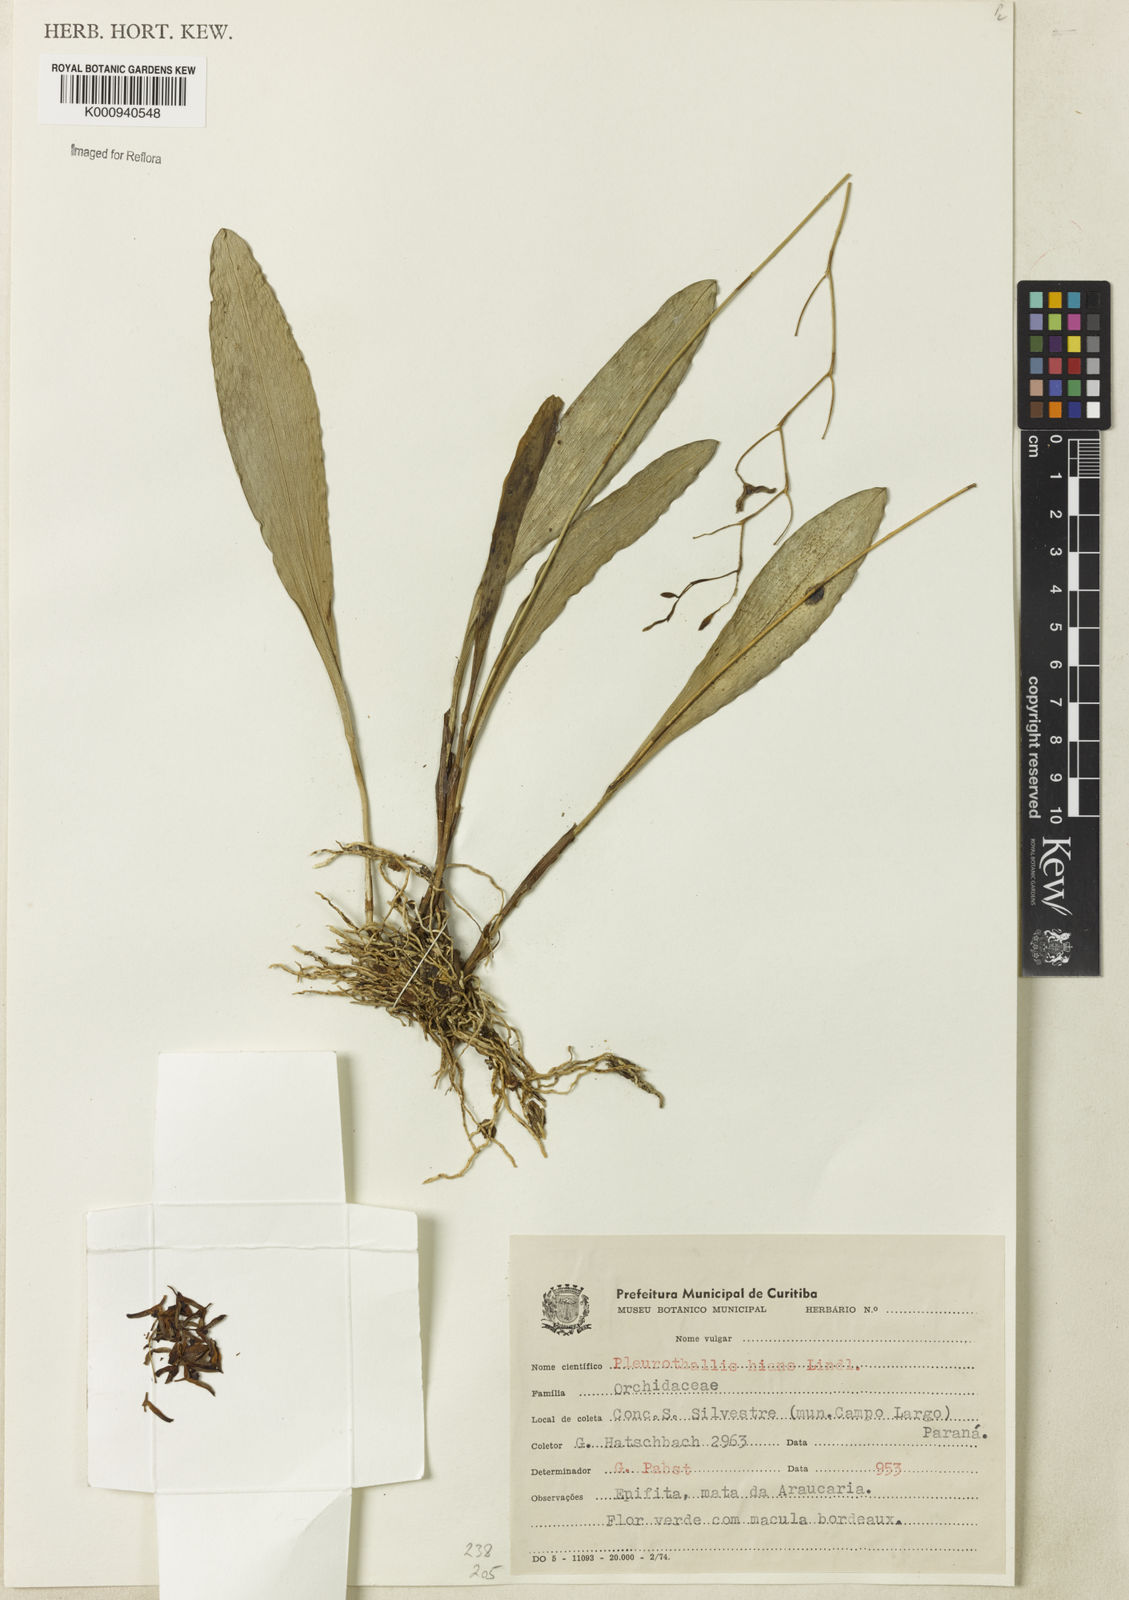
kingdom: Plantae
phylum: Tracheophyta
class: Liliopsida
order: Asparagales
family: Orchidaceae
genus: Stelis
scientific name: Stelis gunningiana
